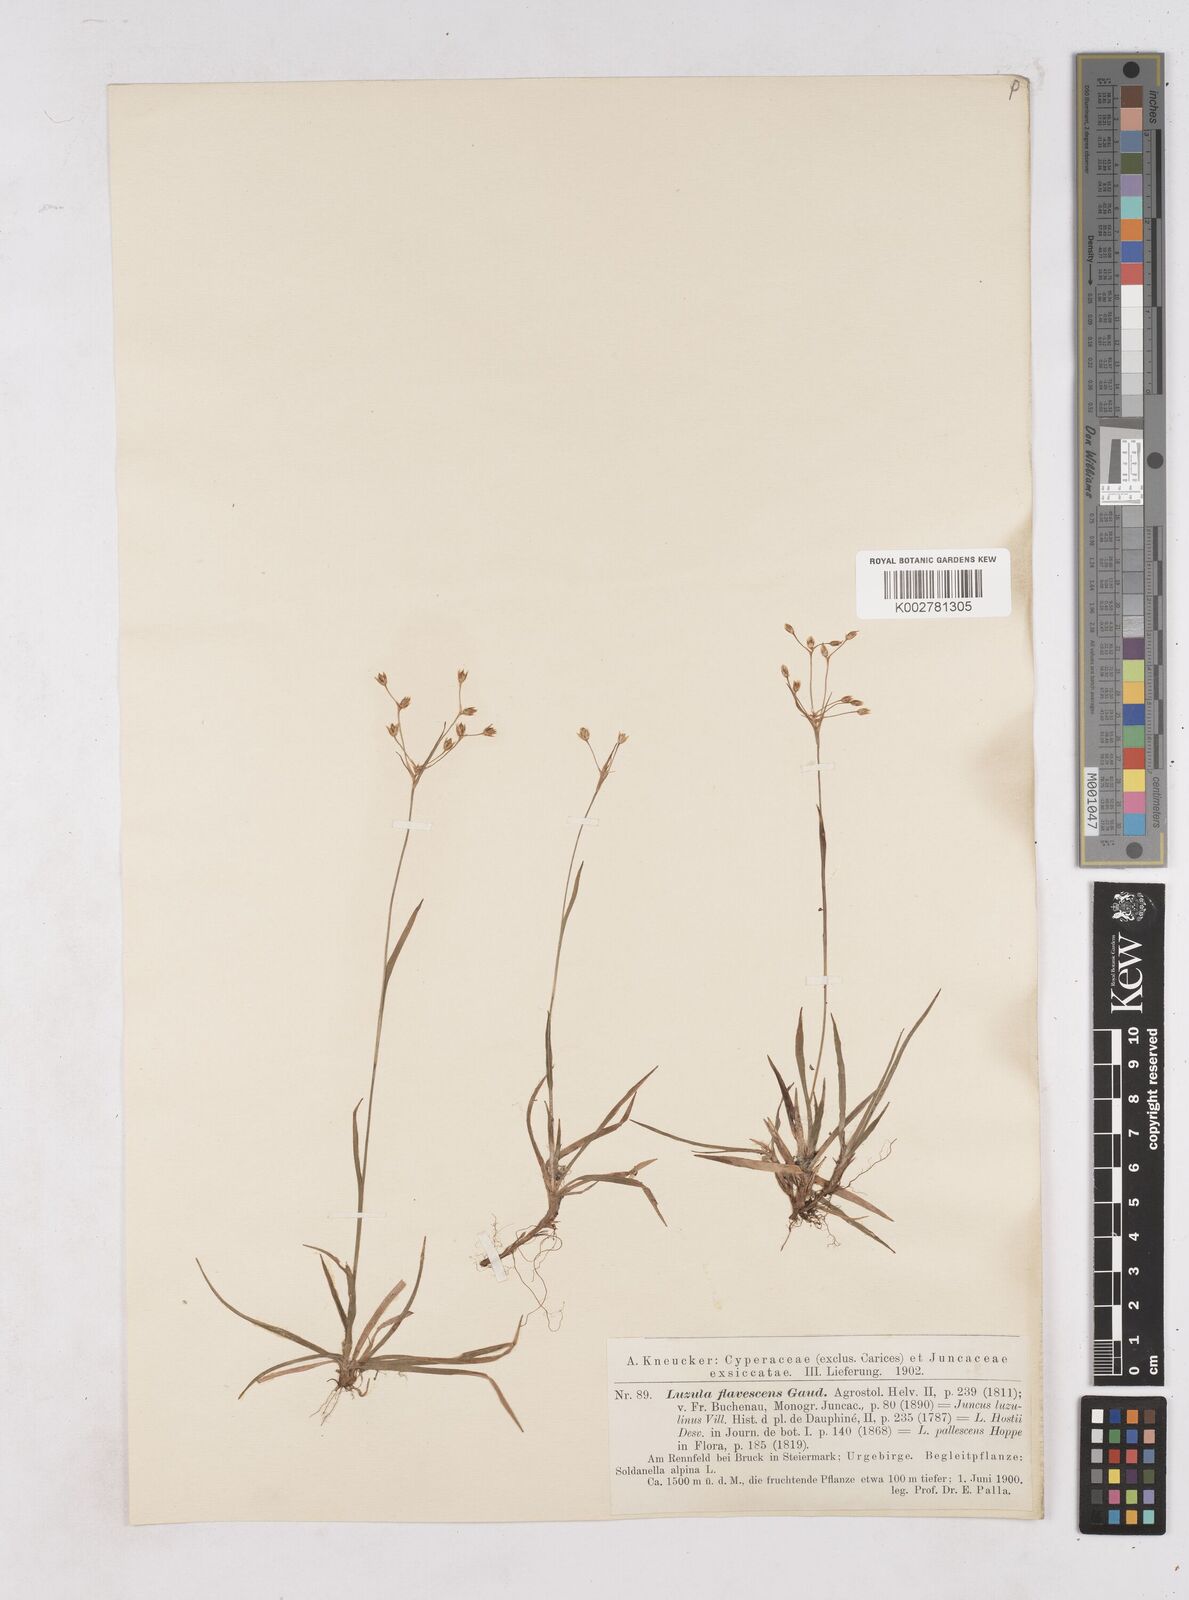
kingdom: Plantae
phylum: Tracheophyta
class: Liliopsida
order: Poales
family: Juncaceae
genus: Luzula
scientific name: Luzula luzulina
